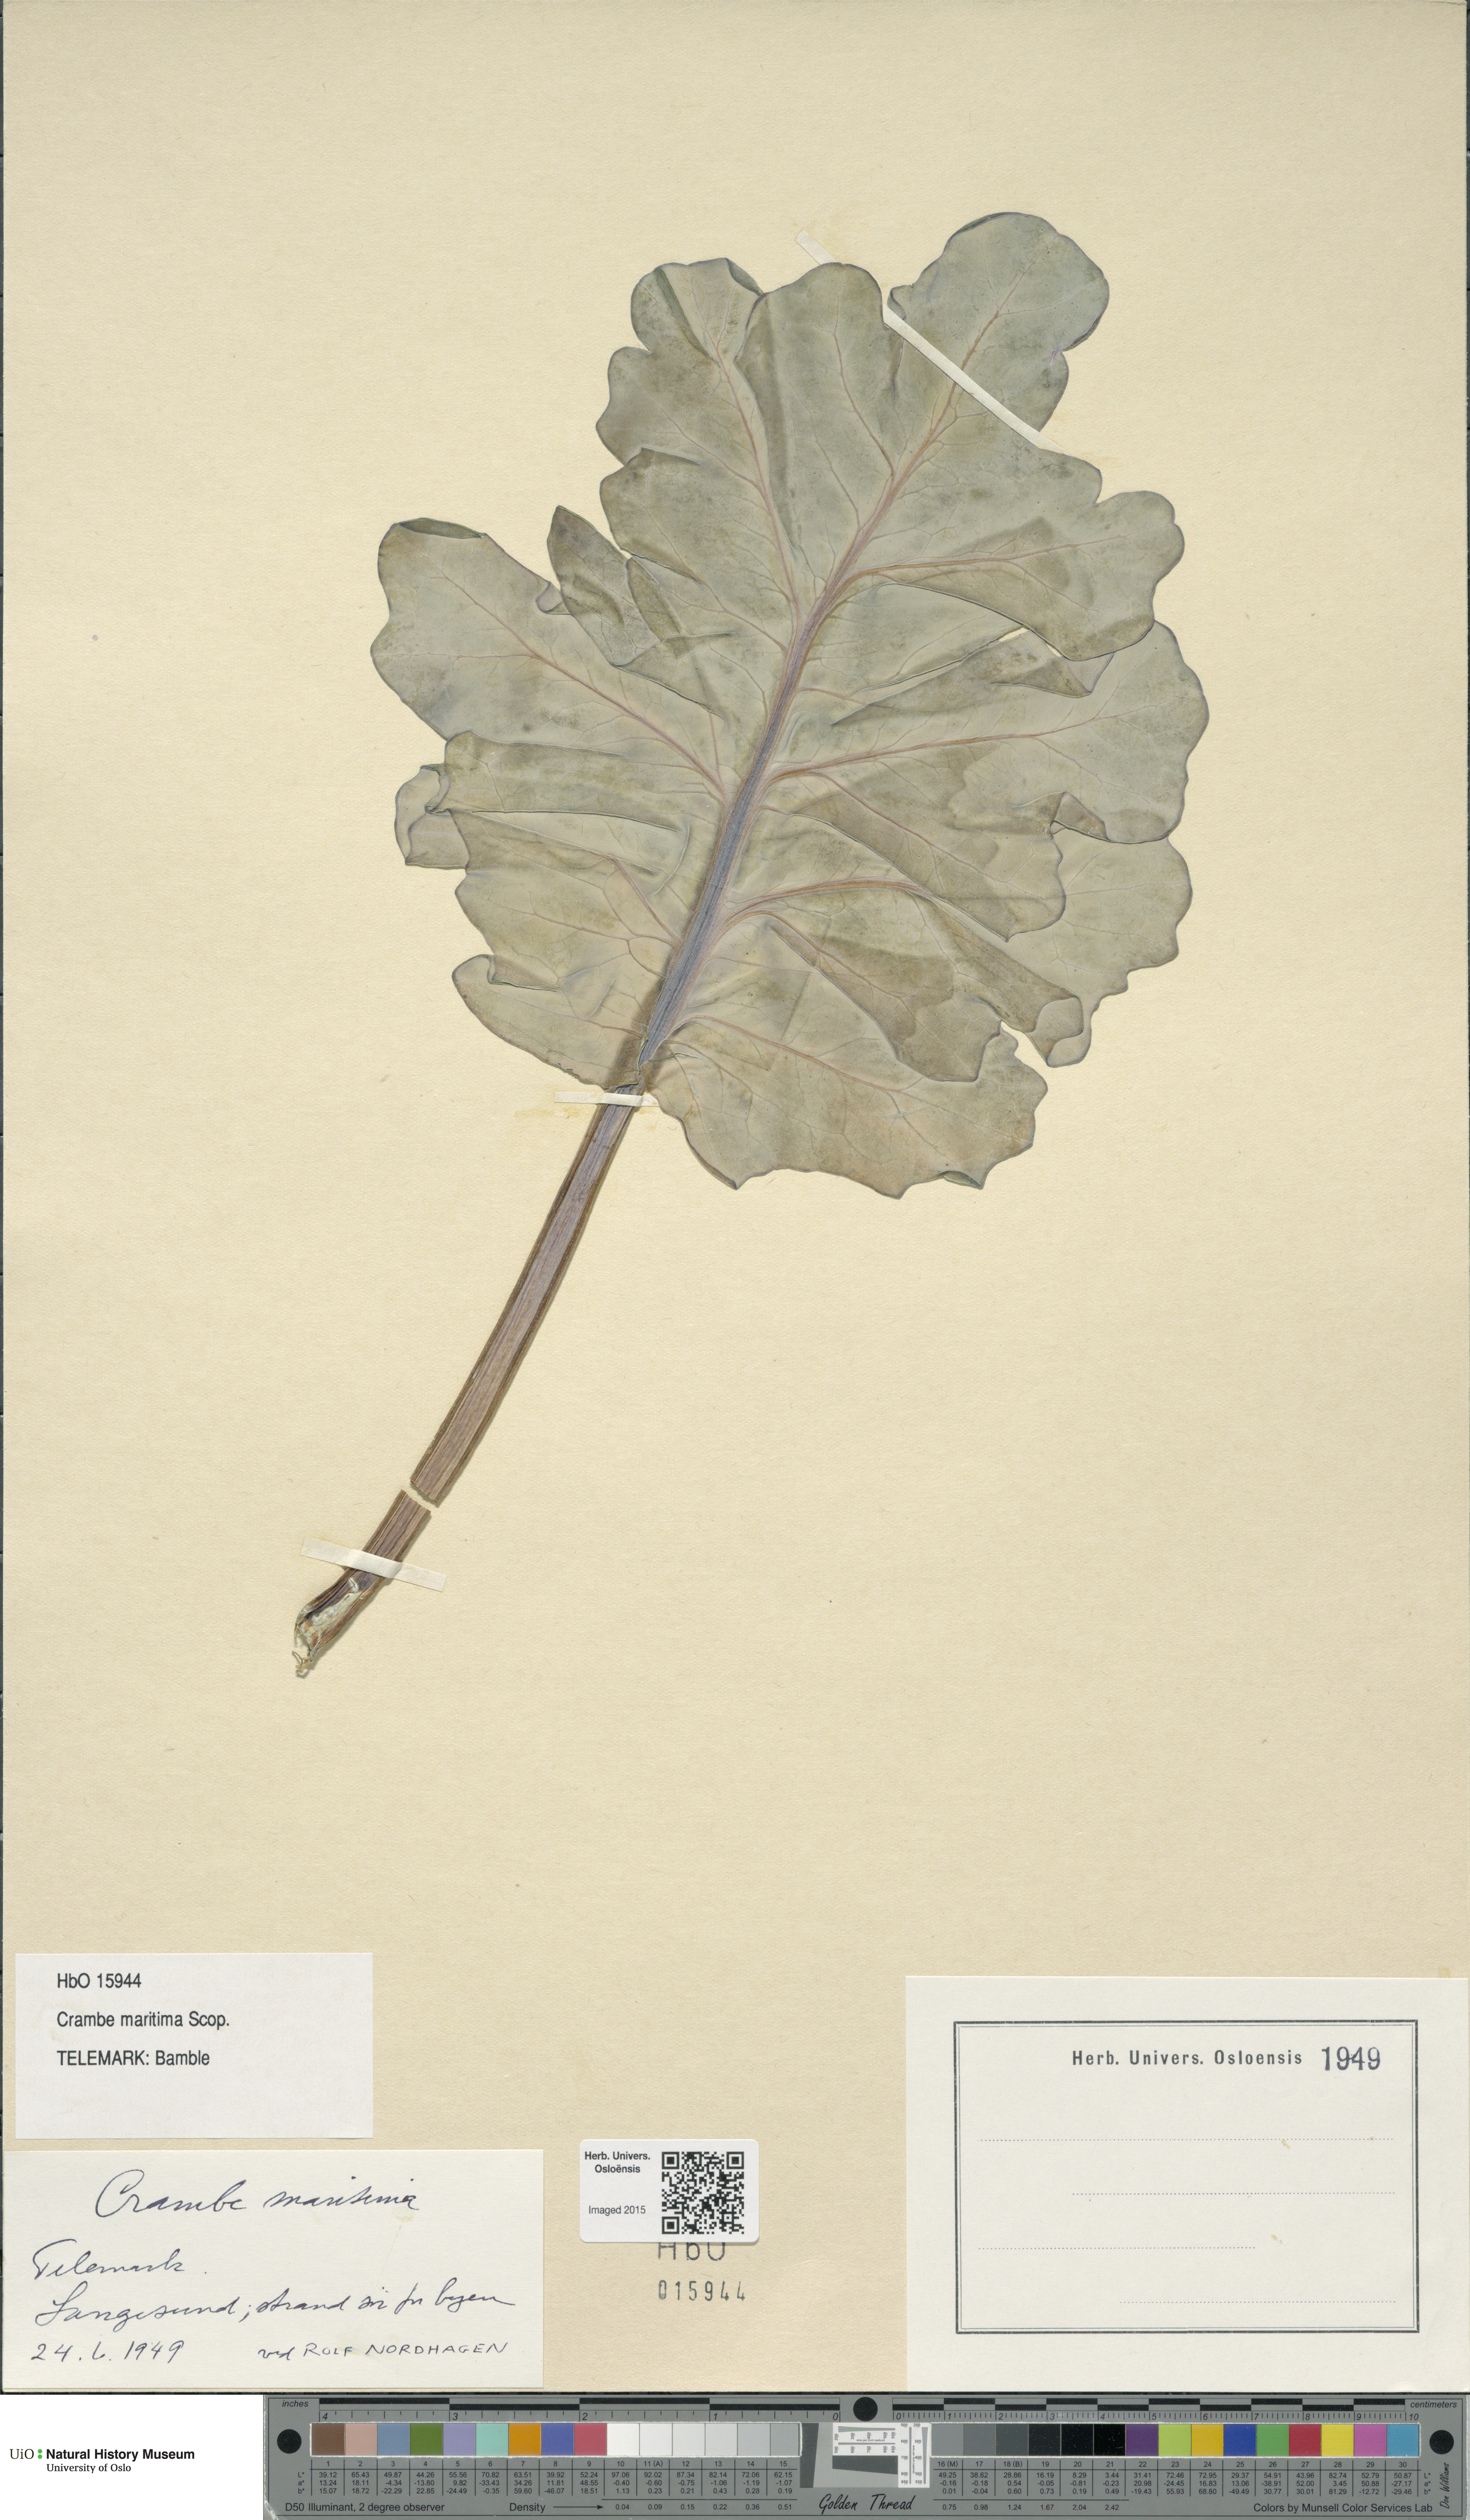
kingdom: Plantae
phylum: Tracheophyta
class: Magnoliopsida
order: Brassicales
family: Brassicaceae
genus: Crambe
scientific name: Crambe maritima
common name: Sea-kale
